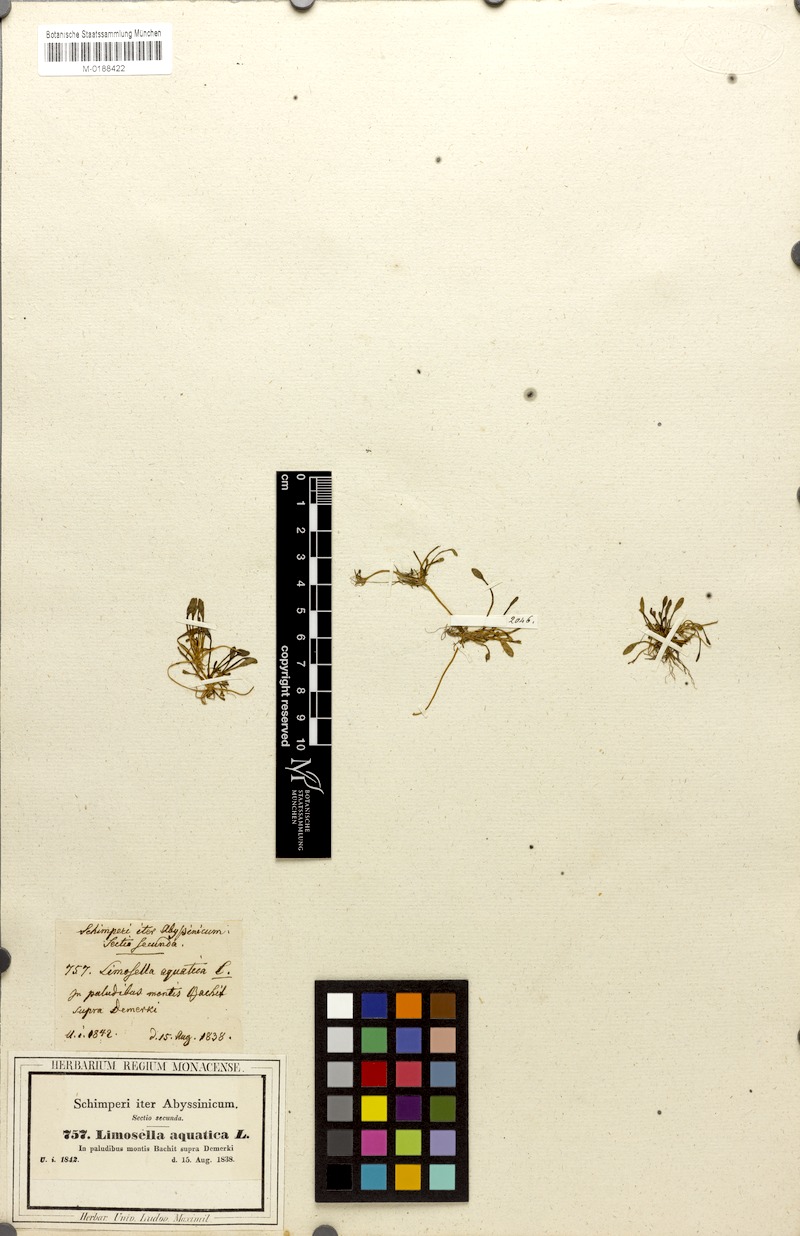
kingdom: Plantae
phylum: Tracheophyta
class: Magnoliopsida
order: Lamiales
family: Scrophulariaceae
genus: Limosella
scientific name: Limosella aquatica
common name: Mudwort
